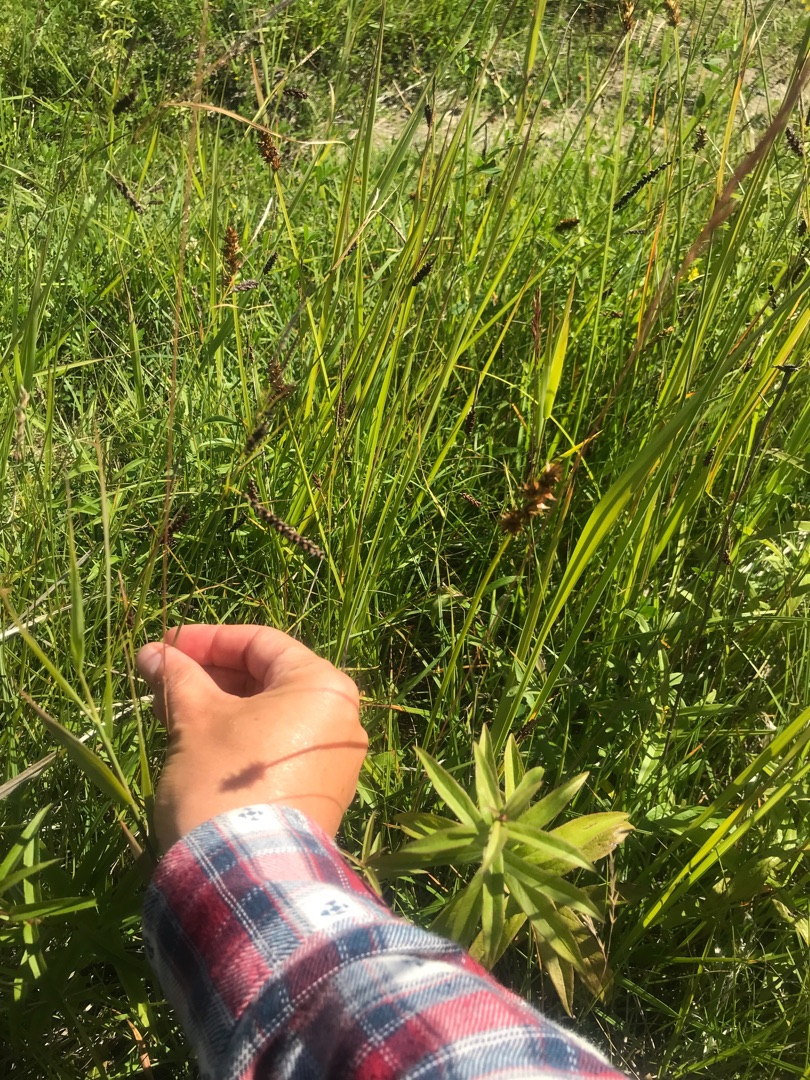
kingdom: Plantae
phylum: Tracheophyta
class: Liliopsida
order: Poales
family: Cyperaceae
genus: Carex
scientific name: Carex flacca
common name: Blågrøn star
